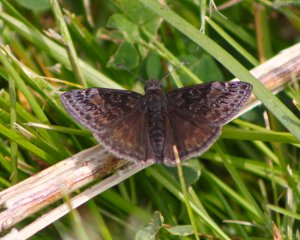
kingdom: Animalia
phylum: Arthropoda
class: Insecta
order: Lepidoptera
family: Hesperiidae
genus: Gesta
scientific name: Gesta
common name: Wild Indigo Duskywing
